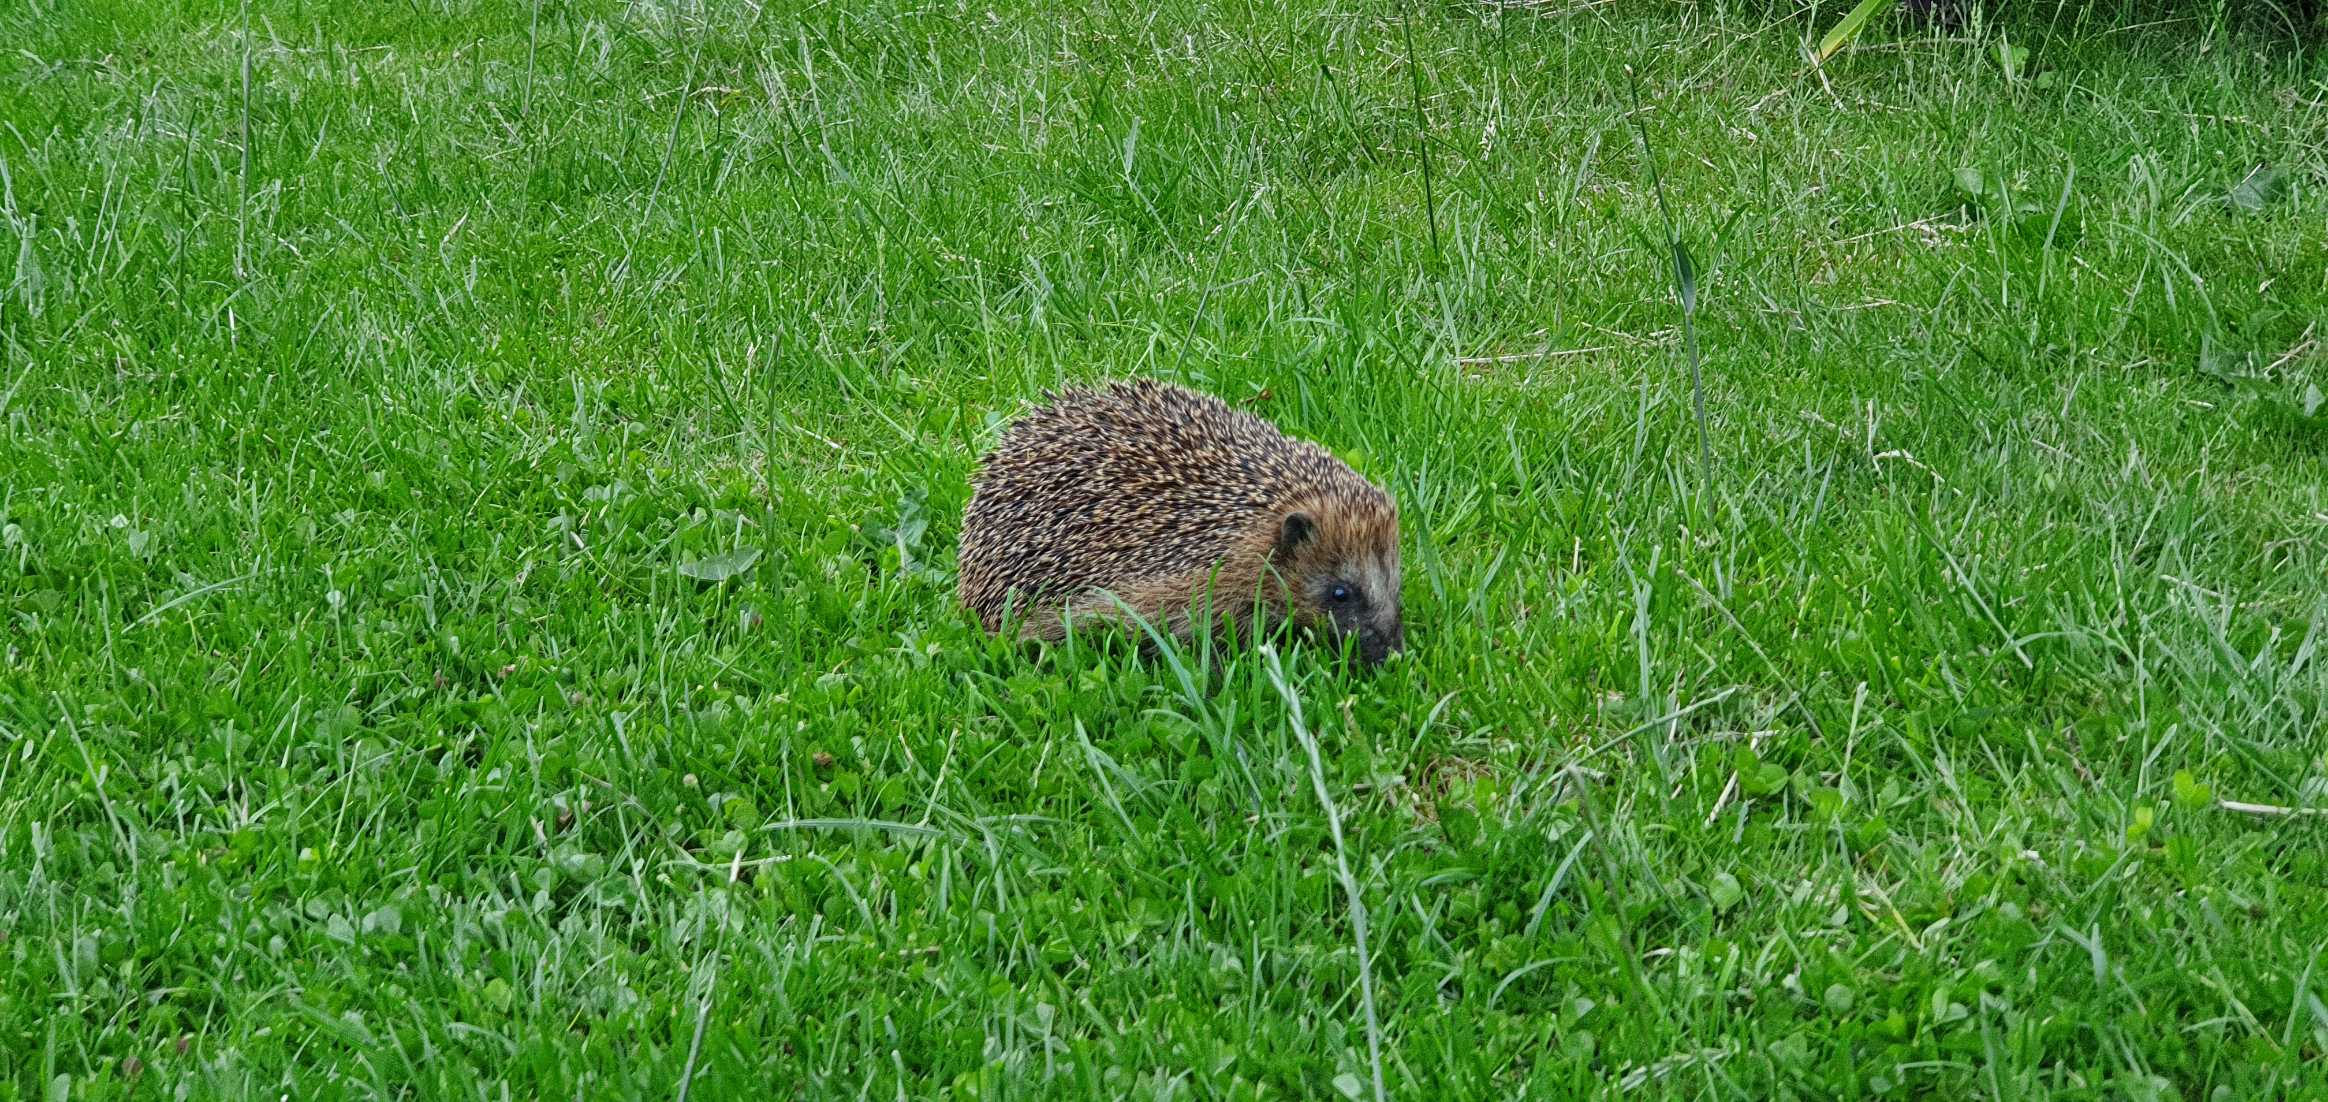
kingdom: Animalia
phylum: Chordata
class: Mammalia
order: Erinaceomorpha
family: Erinaceidae
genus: Erinaceus
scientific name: Erinaceus europaeus
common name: Pindsvin
